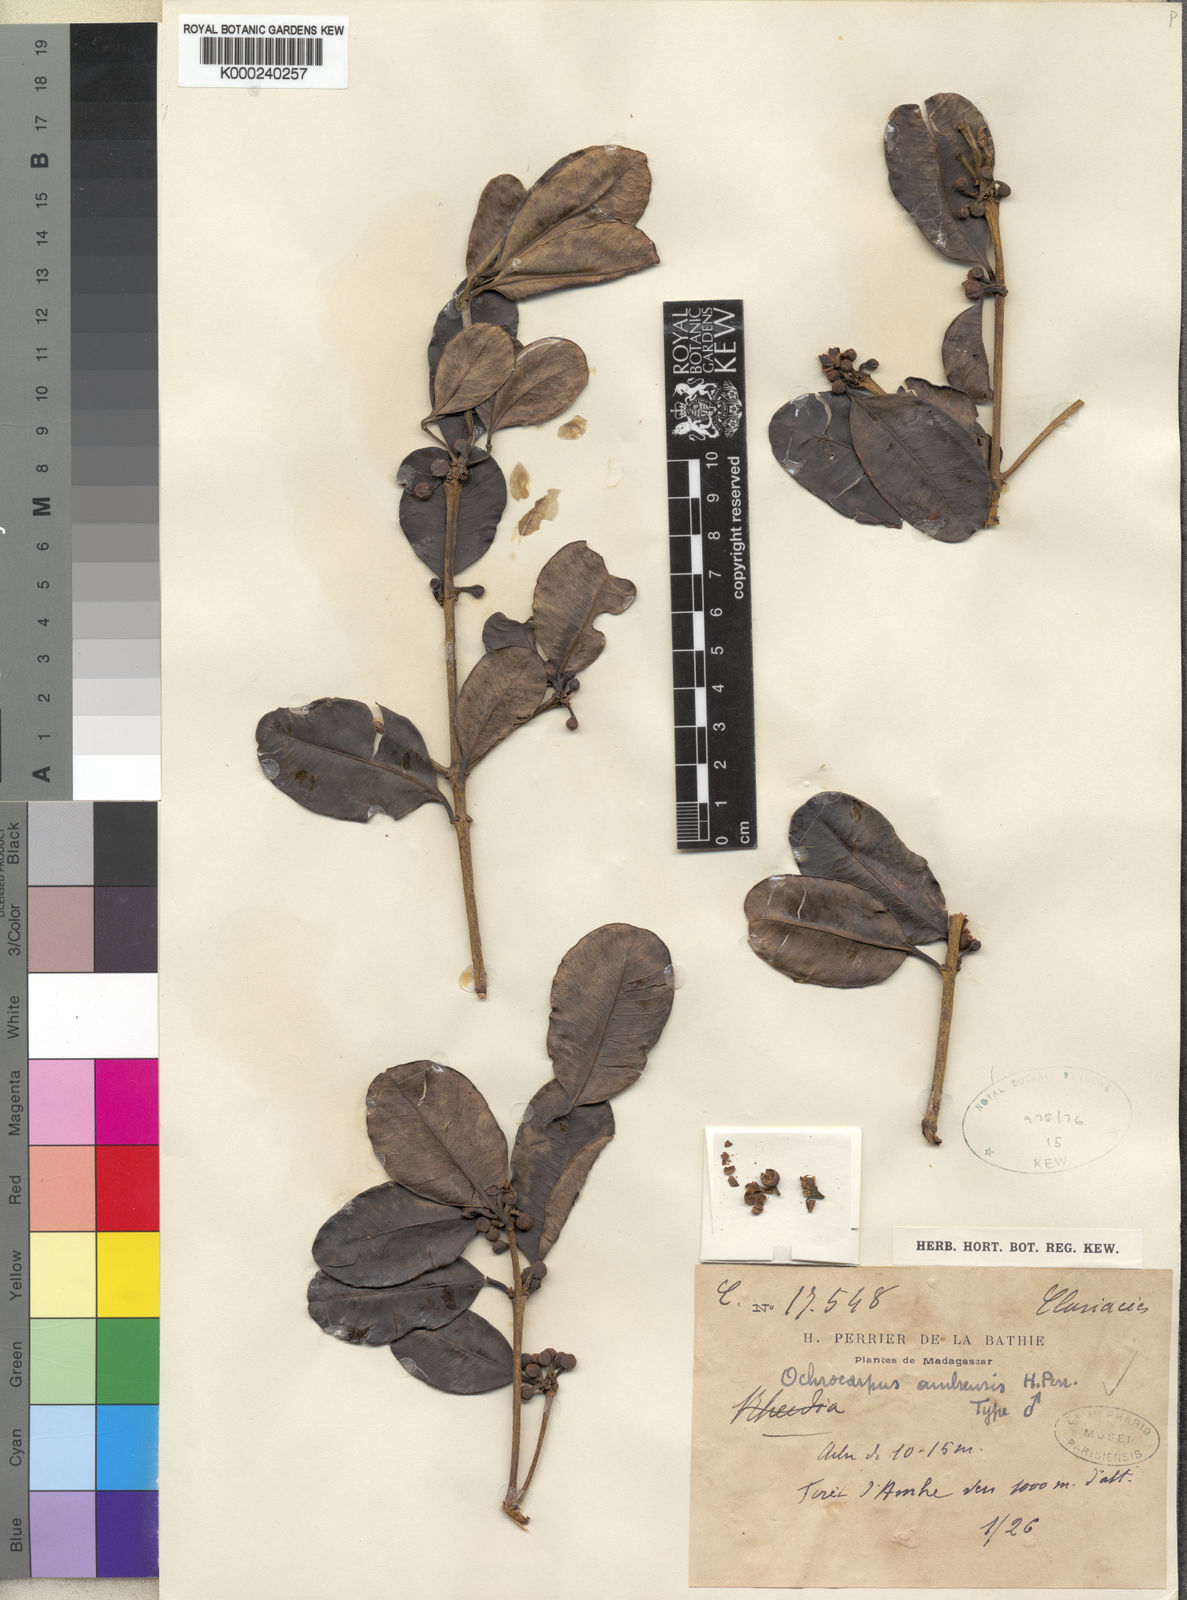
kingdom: Plantae
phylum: Tracheophyta
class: Magnoliopsida
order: Malpighiales
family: Clusiaceae
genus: Garcinia
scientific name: Garcinia
